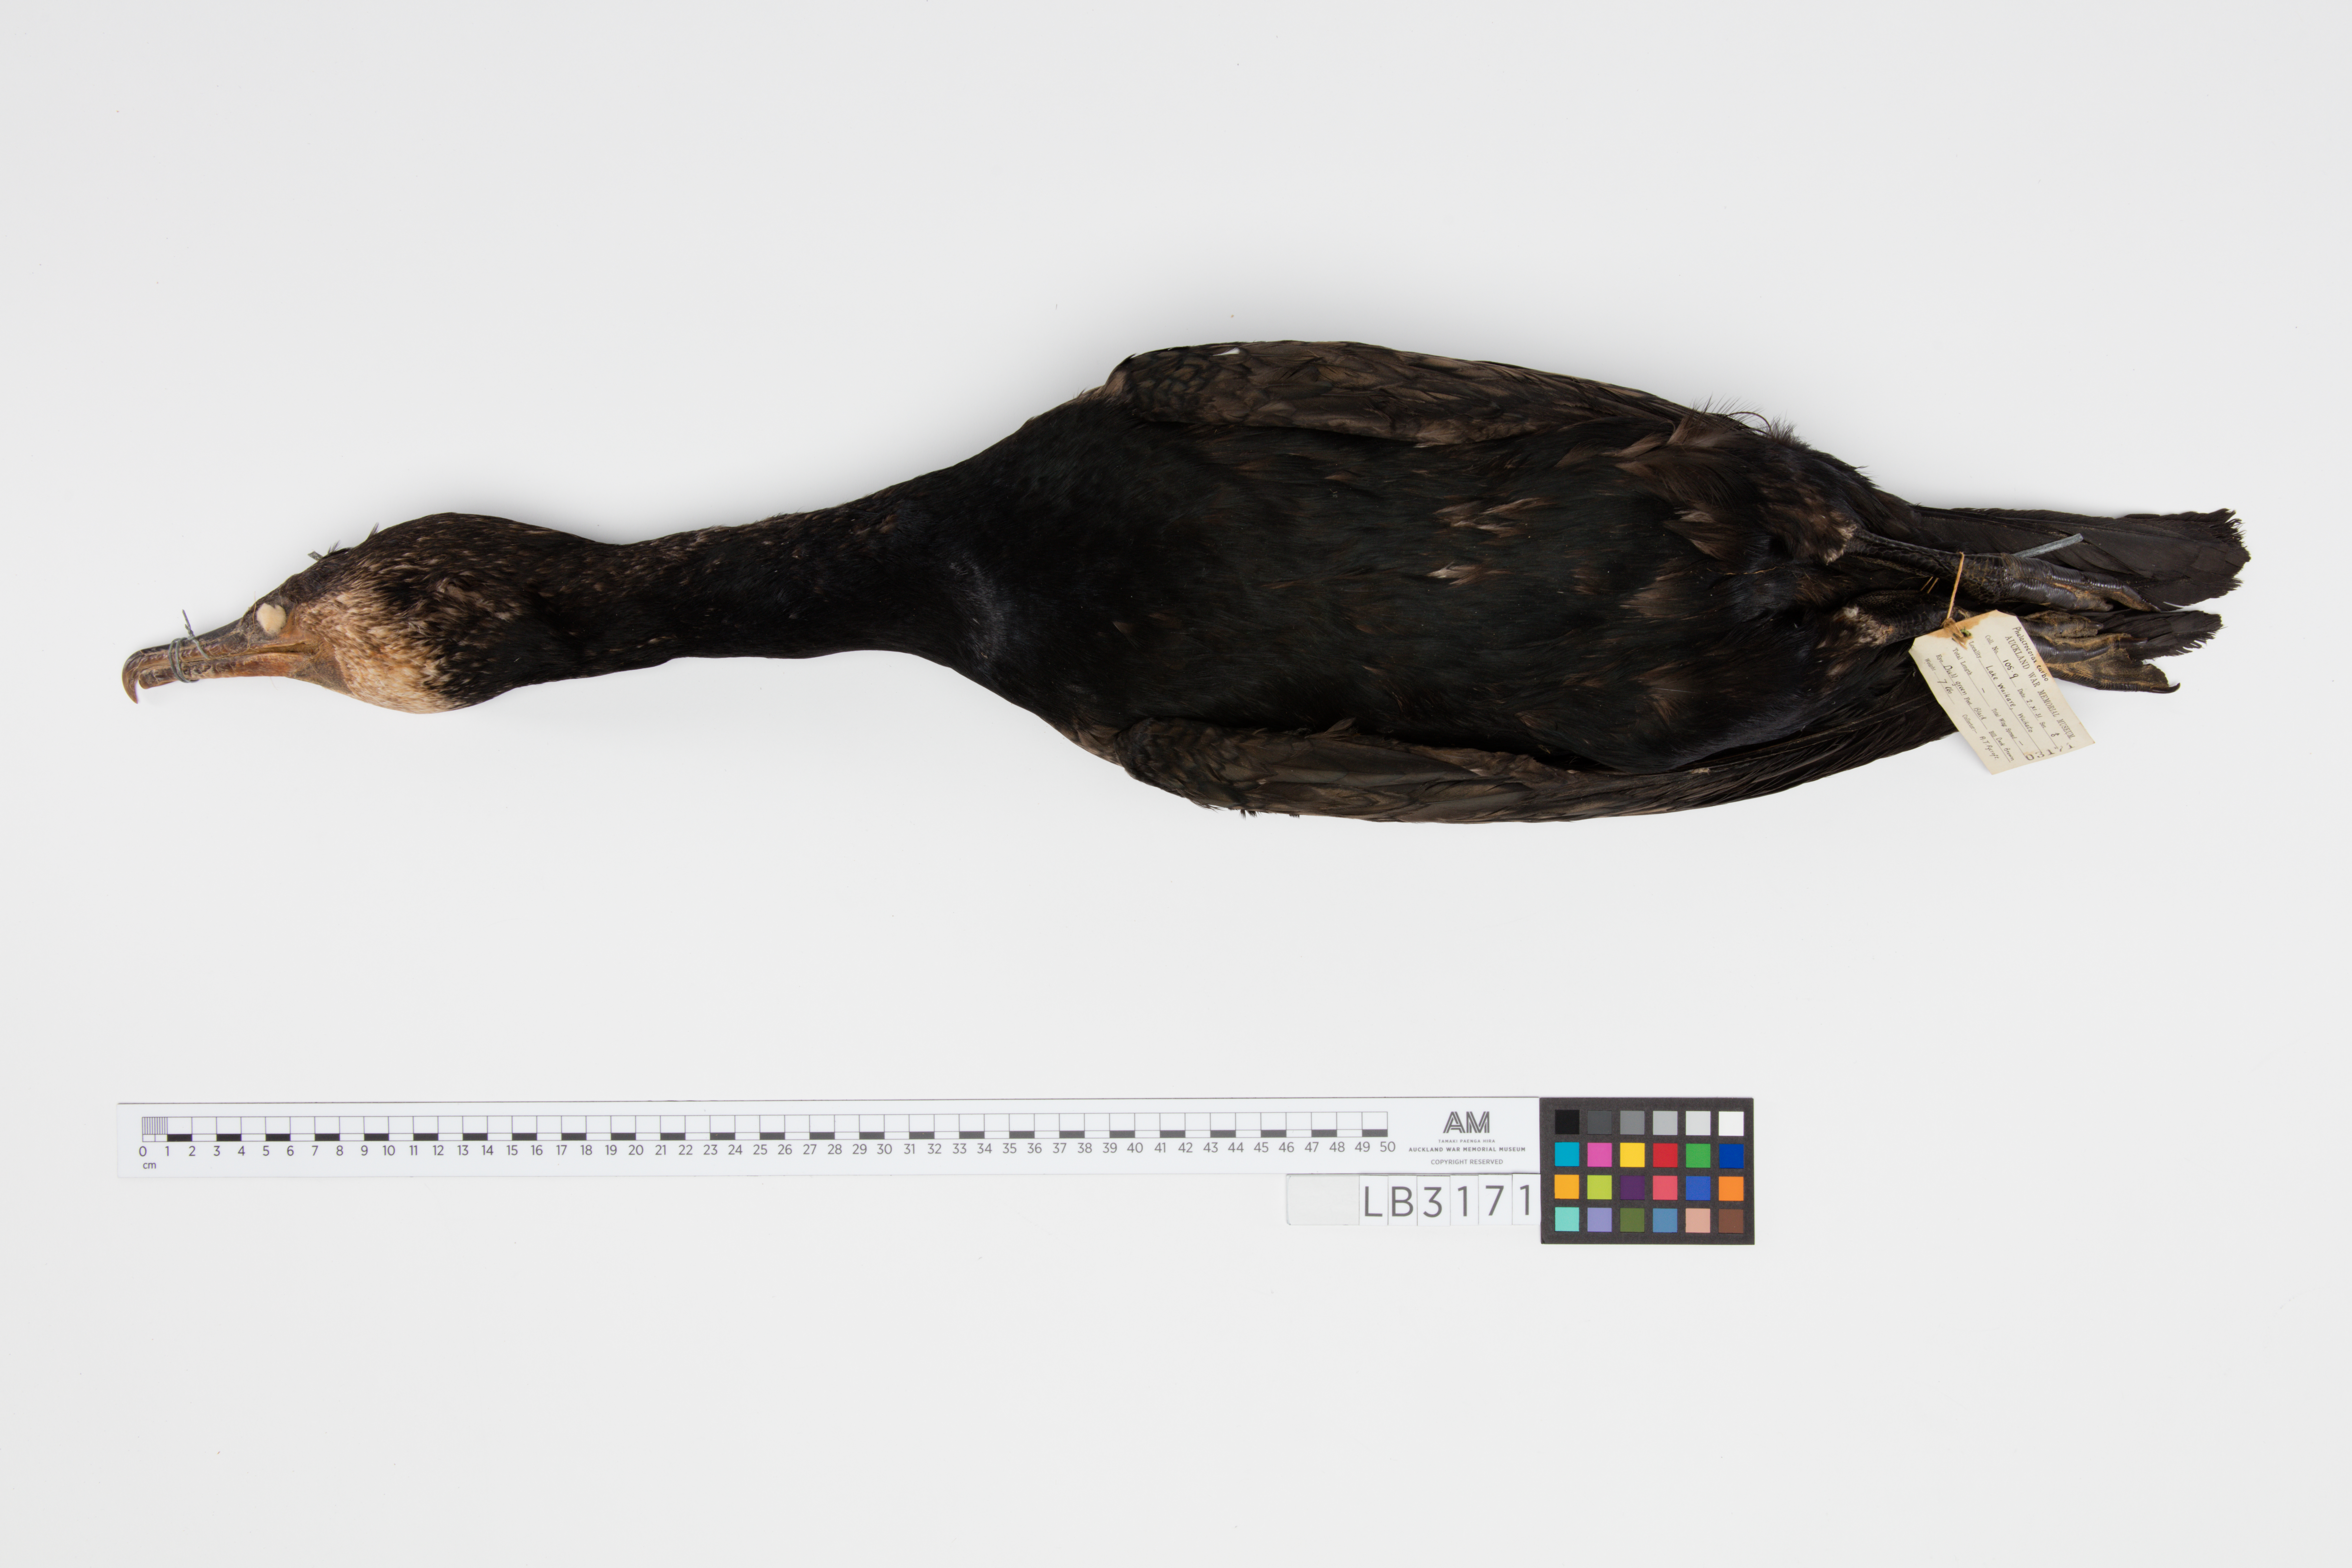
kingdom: Animalia
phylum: Chordata
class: Aves
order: Suliformes
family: Phalacrocoracidae
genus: Phalacrocorax
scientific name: Phalacrocorax carbo
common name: Great cormorant
